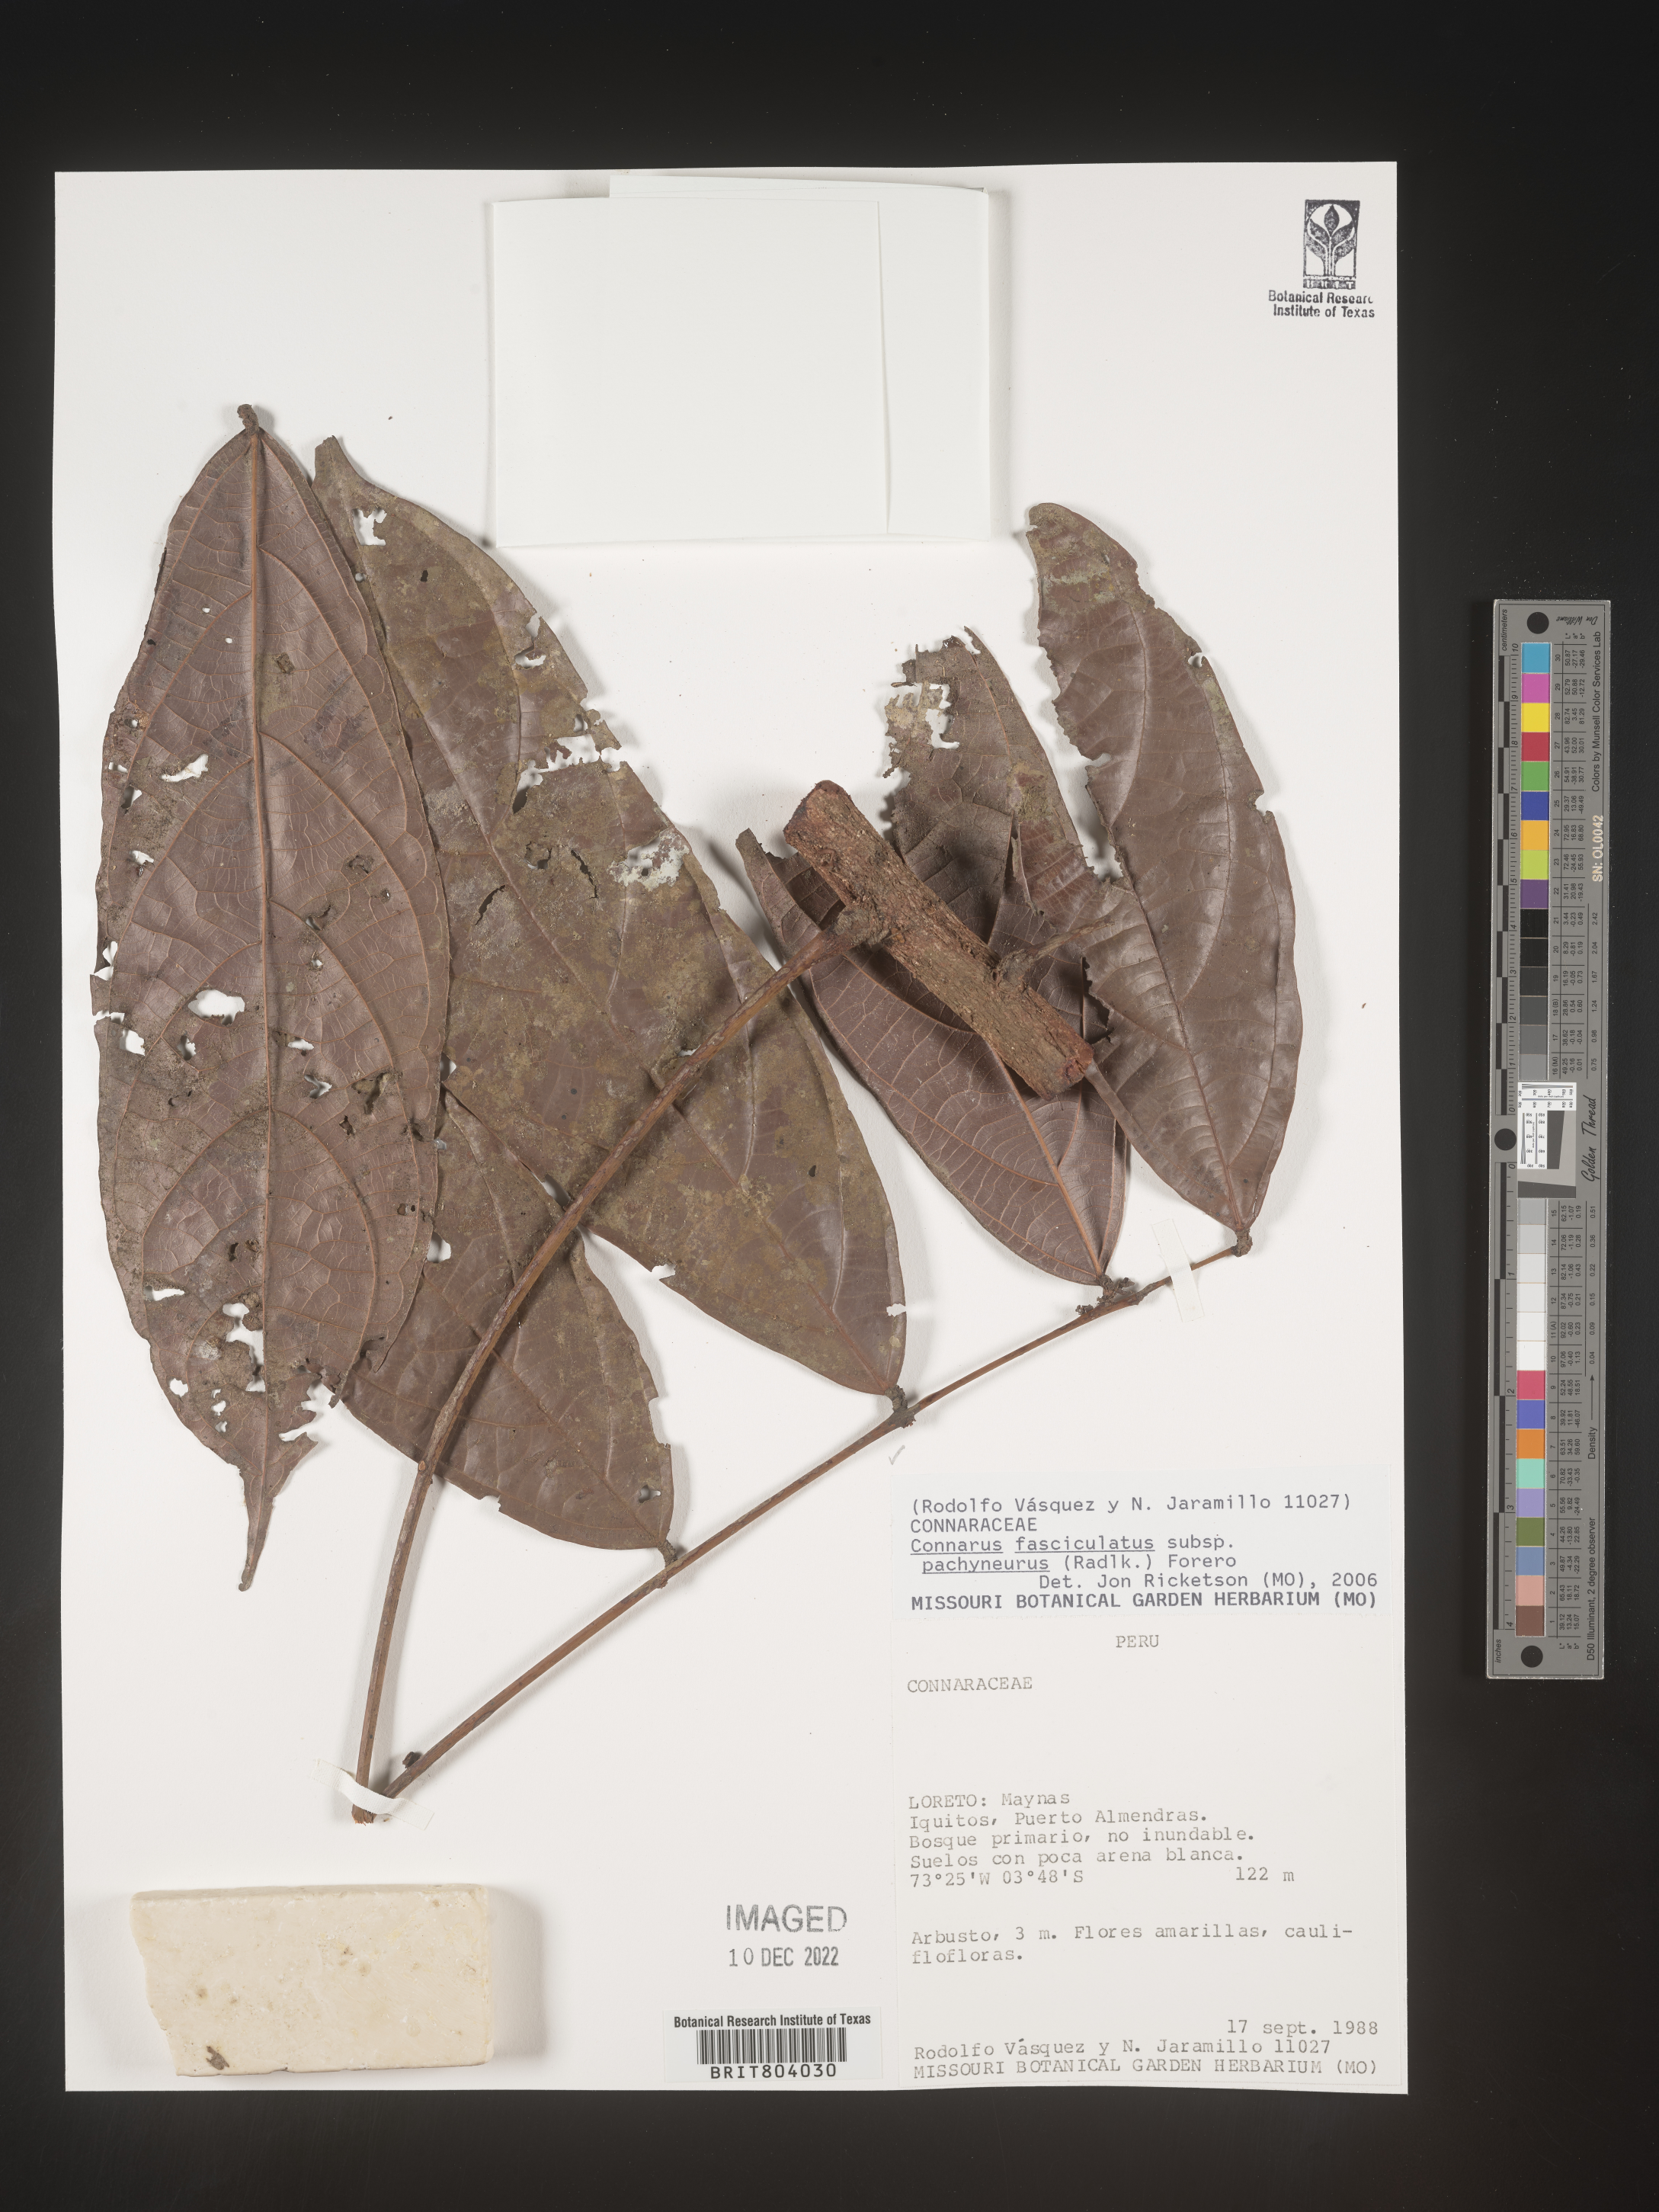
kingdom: Plantae
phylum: Tracheophyta
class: Magnoliopsida
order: Oxalidales
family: Connaraceae
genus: Connarus
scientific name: Connarus
